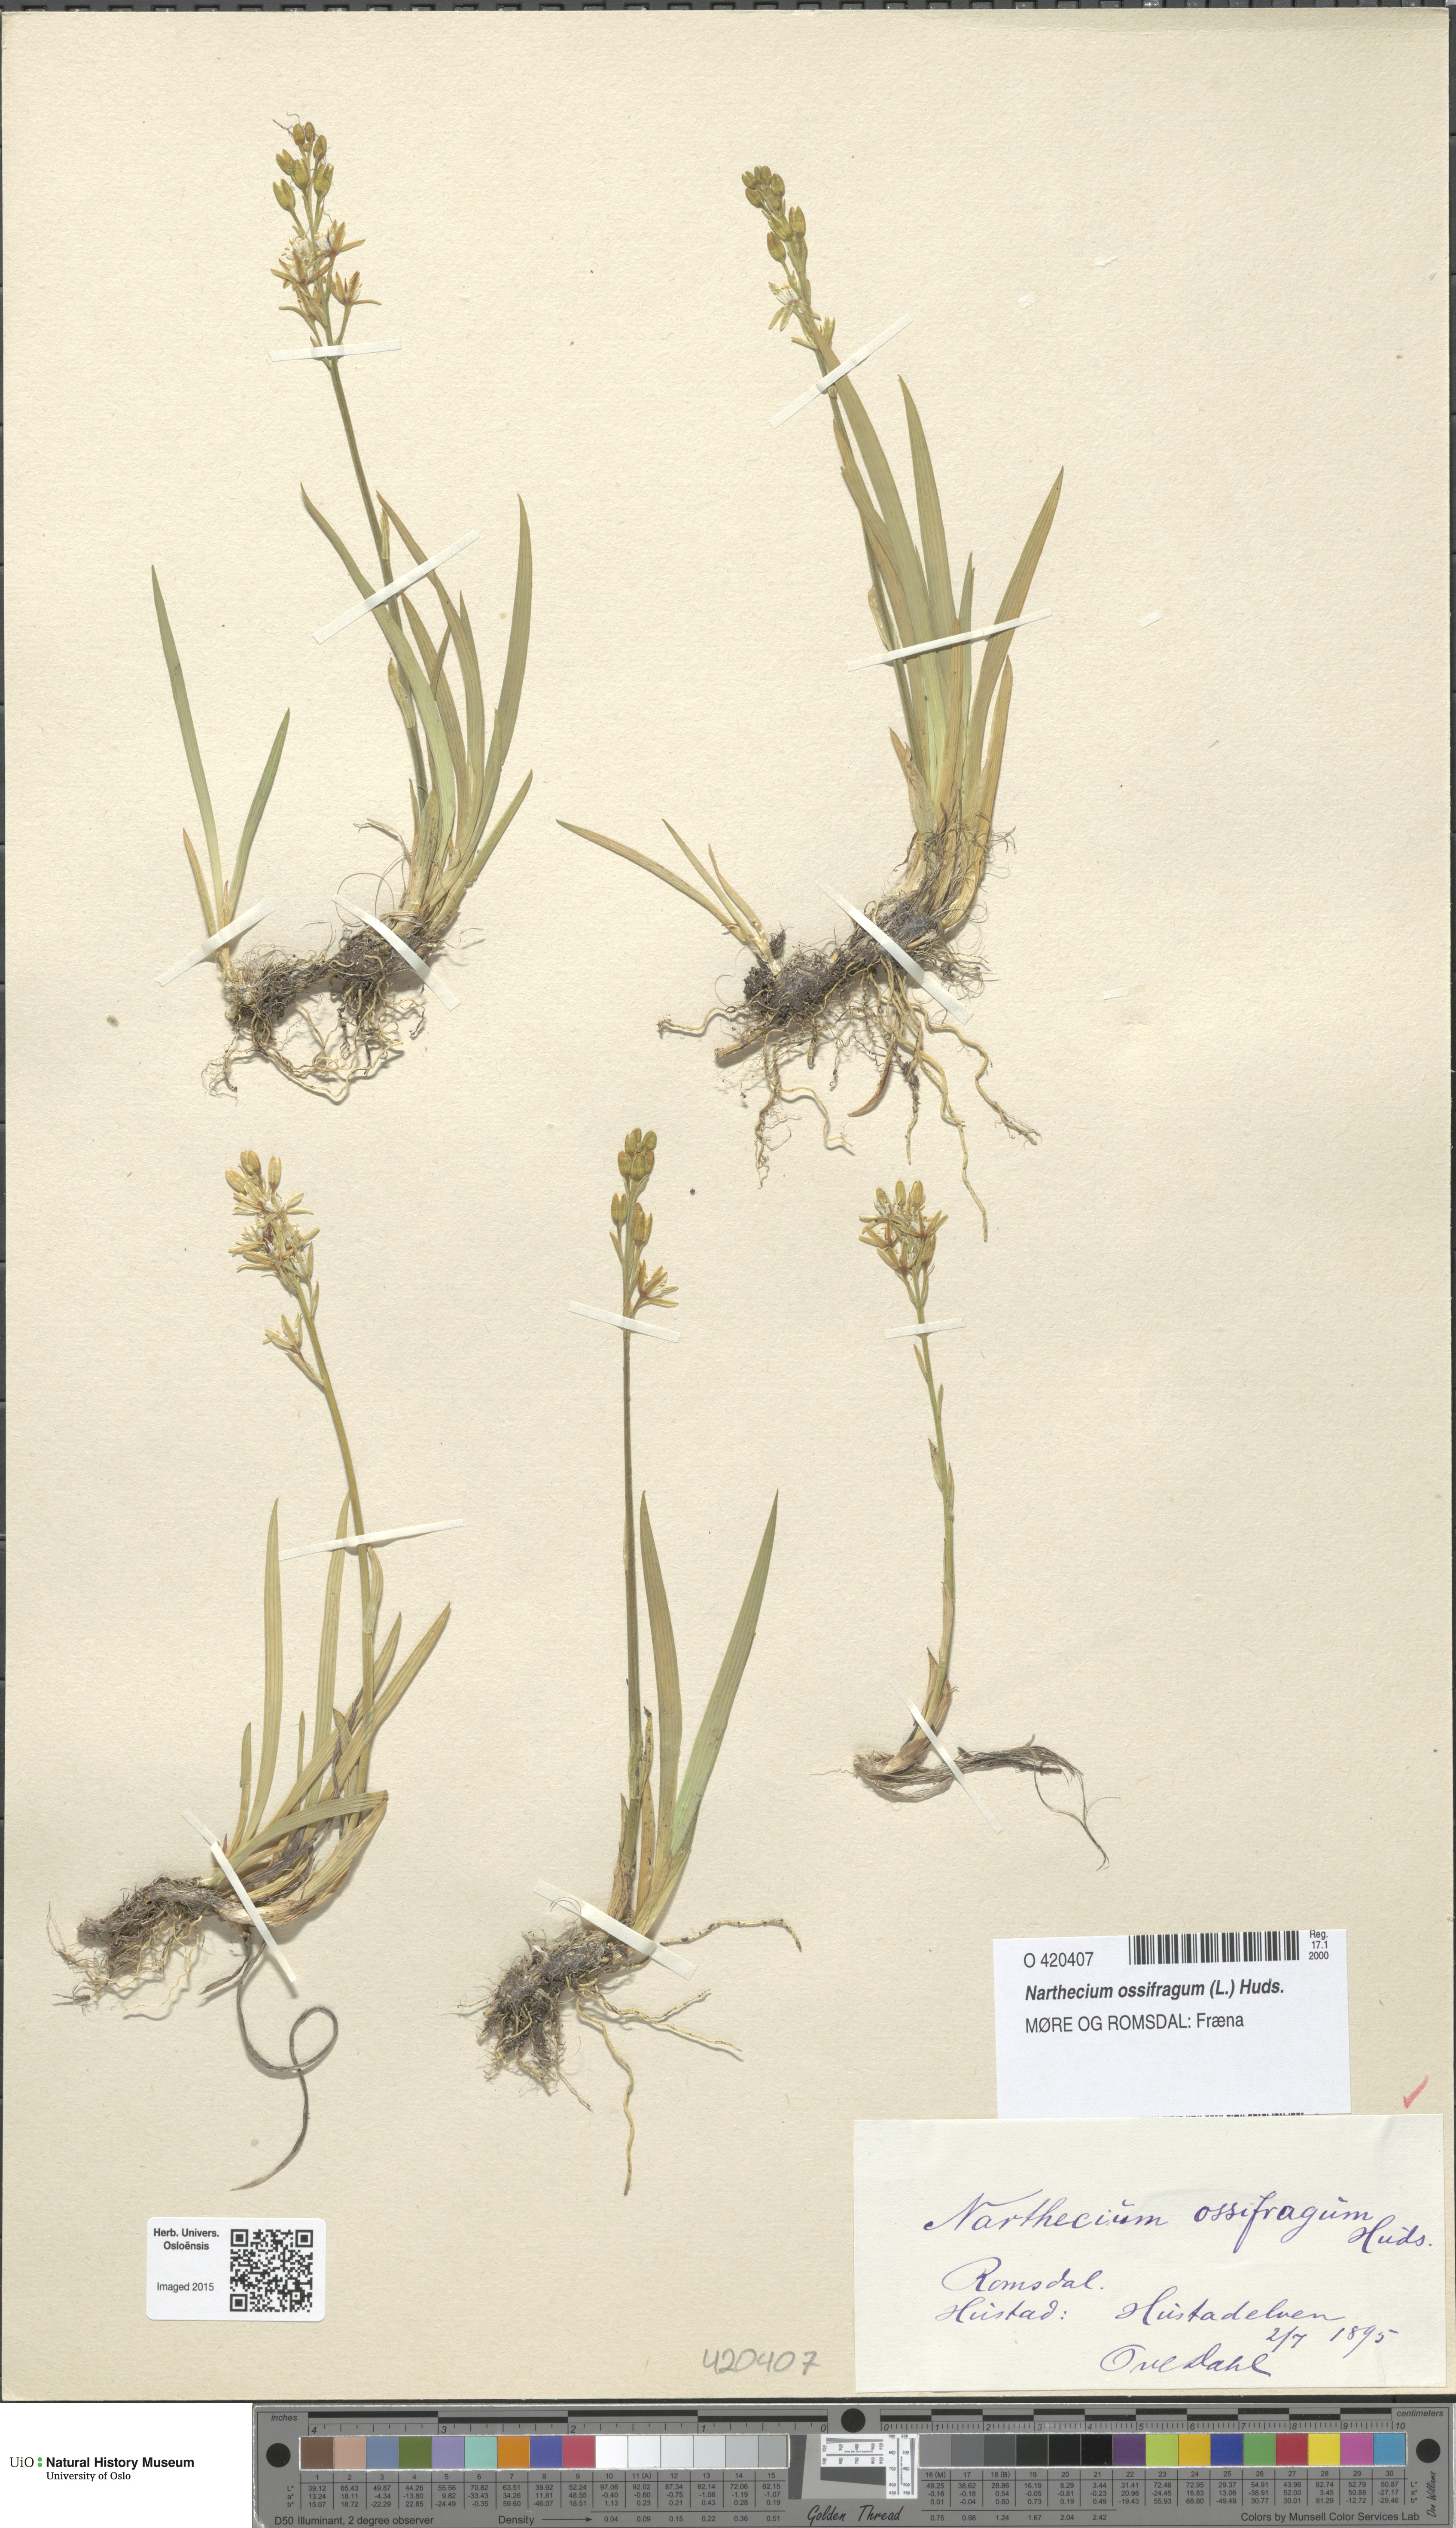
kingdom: Plantae
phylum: Tracheophyta
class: Liliopsida
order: Dioscoreales
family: Nartheciaceae
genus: Narthecium
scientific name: Narthecium ossifragum
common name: Bog asphodel
